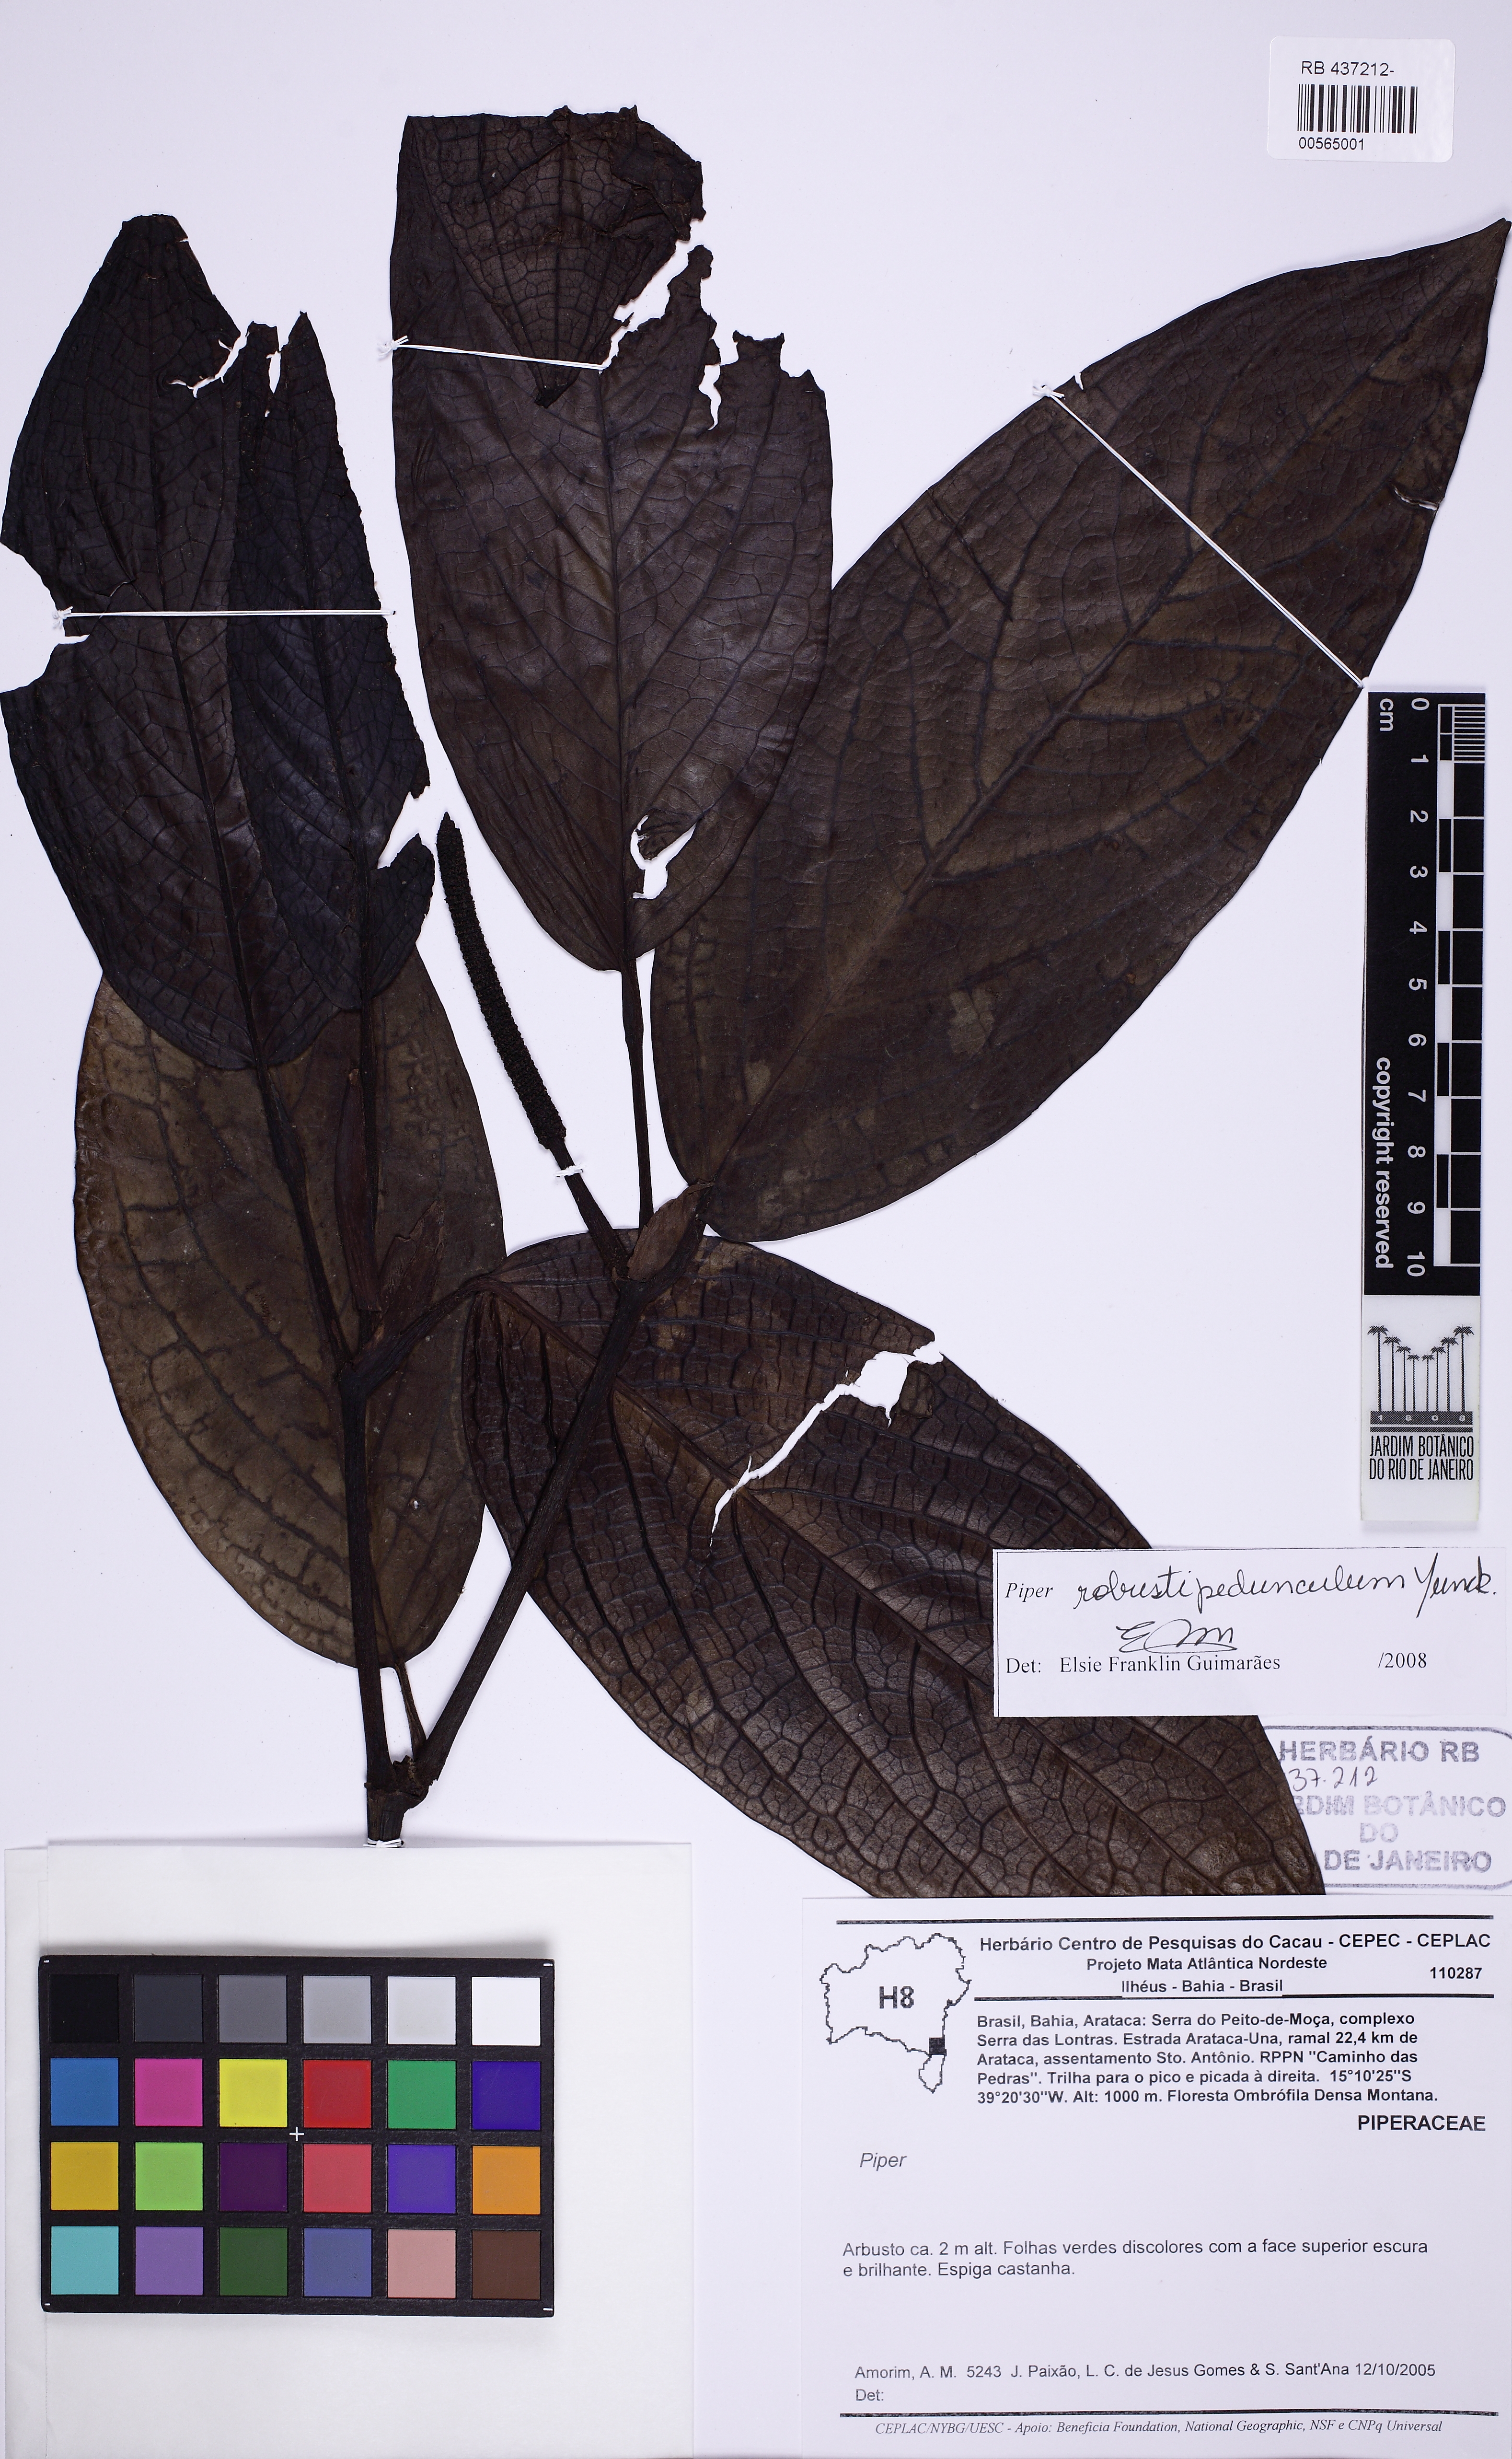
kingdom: Plantae
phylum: Tracheophyta
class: Magnoliopsida
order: Piperales
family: Piperaceae
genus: Piper
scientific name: Piper robustipedunculum
